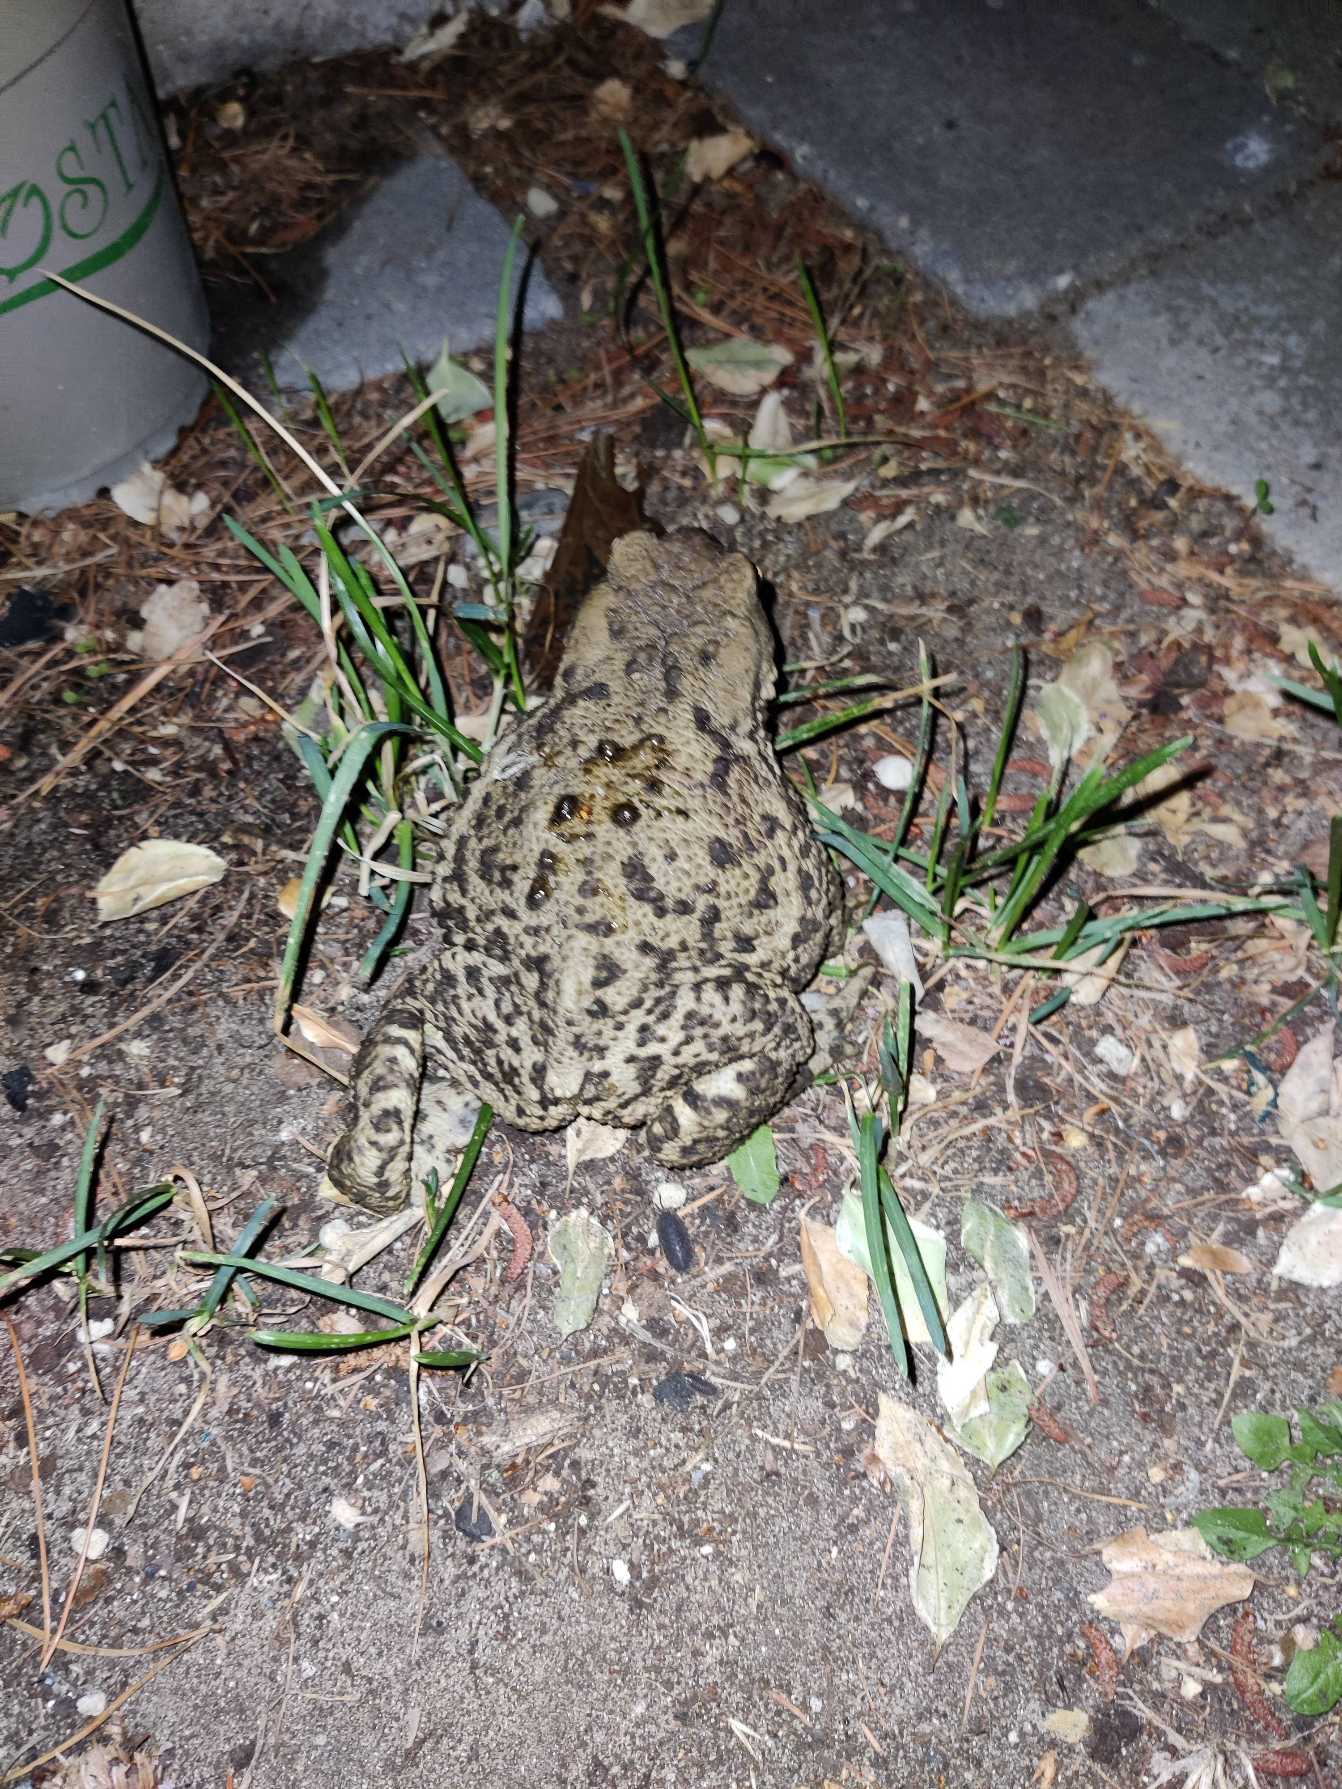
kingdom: Animalia
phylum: Chordata
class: Amphibia
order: Anura
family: Bufonidae
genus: Bufo
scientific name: Bufo bufo
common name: Skrubtudse
